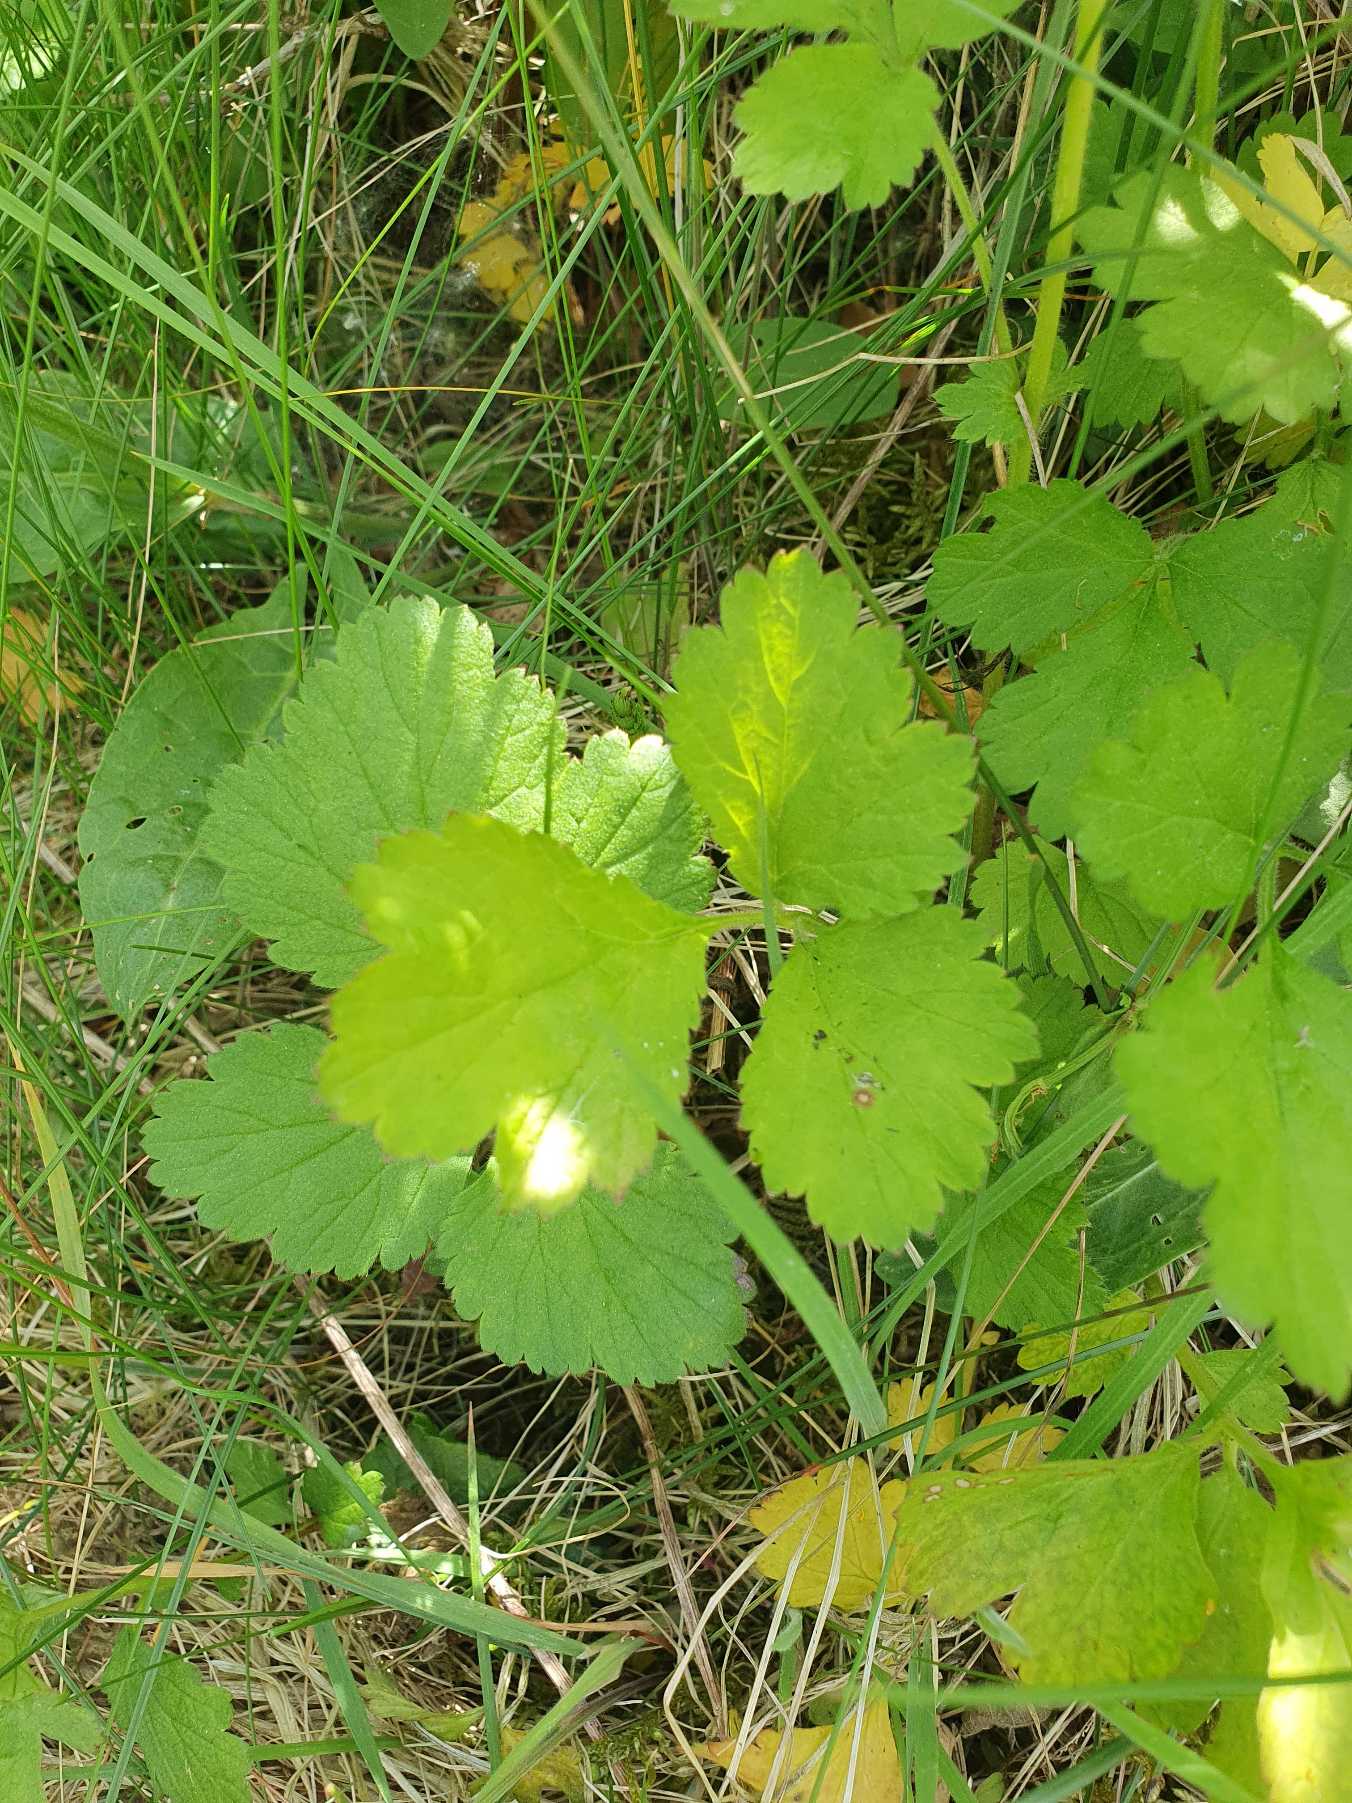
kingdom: Plantae
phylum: Tracheophyta
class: Magnoliopsida
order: Rosales
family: Rosaceae
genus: Geum
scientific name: Geum urbanum
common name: Feber-nellikerod
